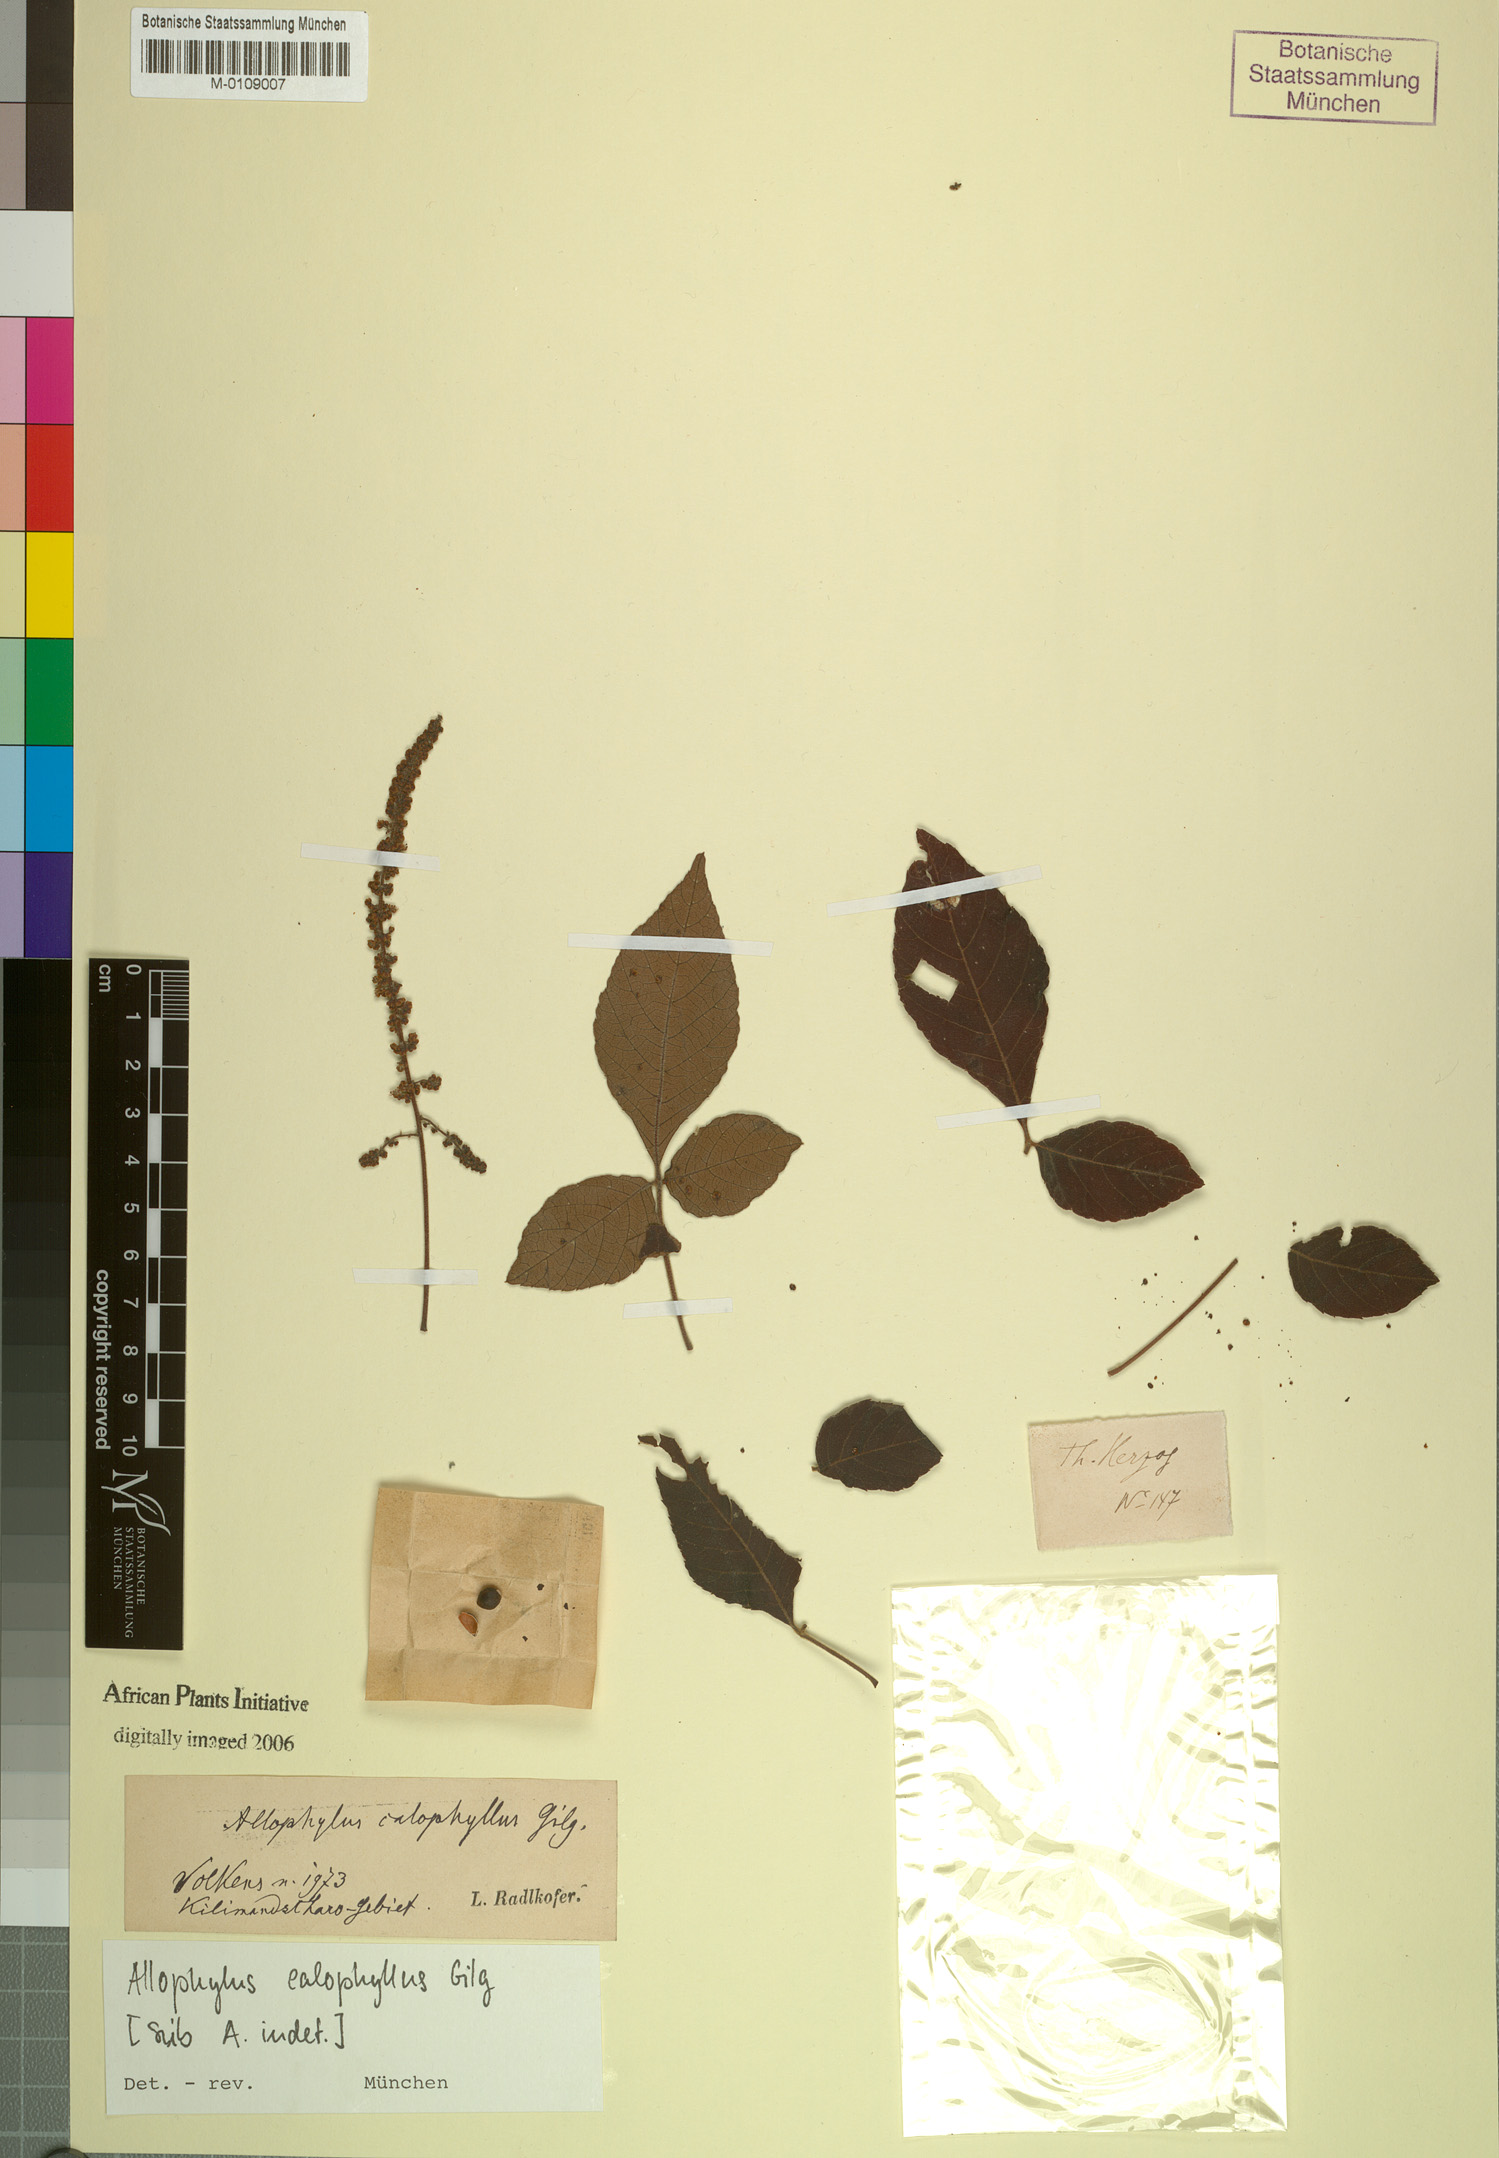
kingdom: Plantae
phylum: Tracheophyta
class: Magnoliopsida
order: Sapindales
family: Sapindaceae
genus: Allophylus
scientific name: Allophylus rubifolius
